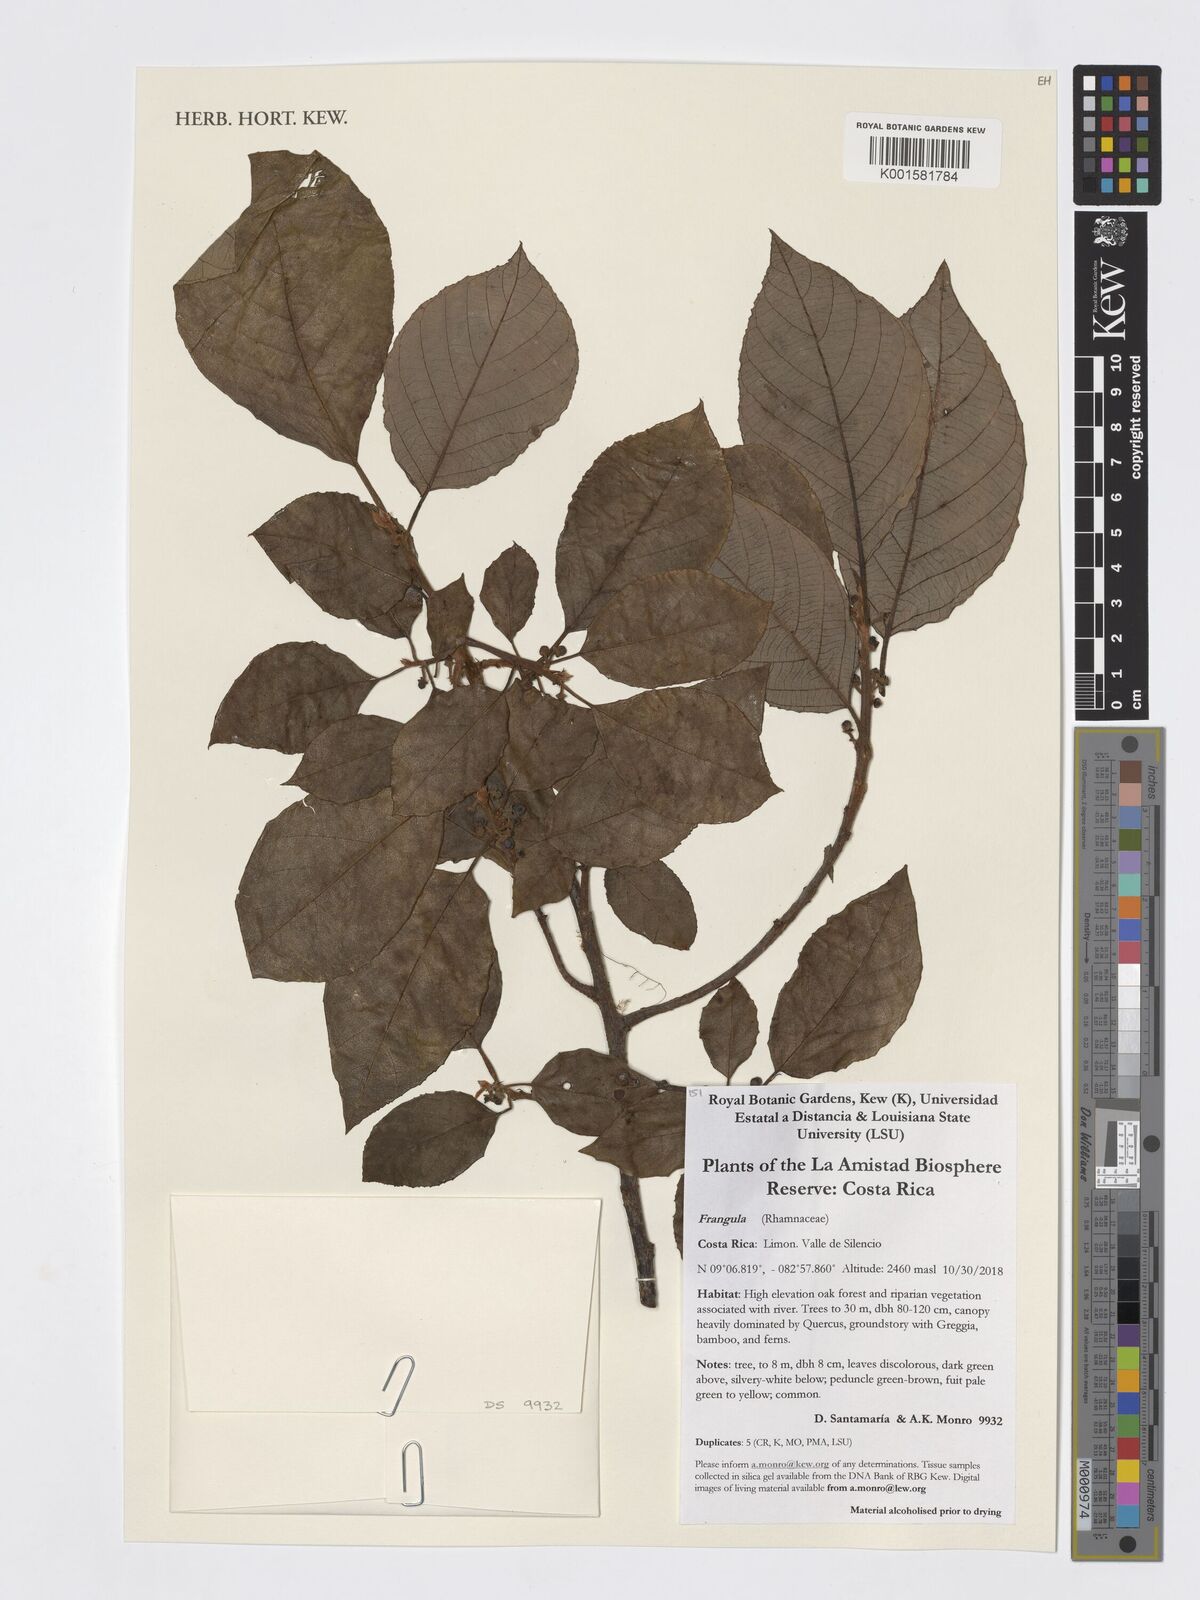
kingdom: Plantae
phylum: Tracheophyta
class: Magnoliopsida
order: Rosales
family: Rhamnaceae
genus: Frangula
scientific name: Frangula
